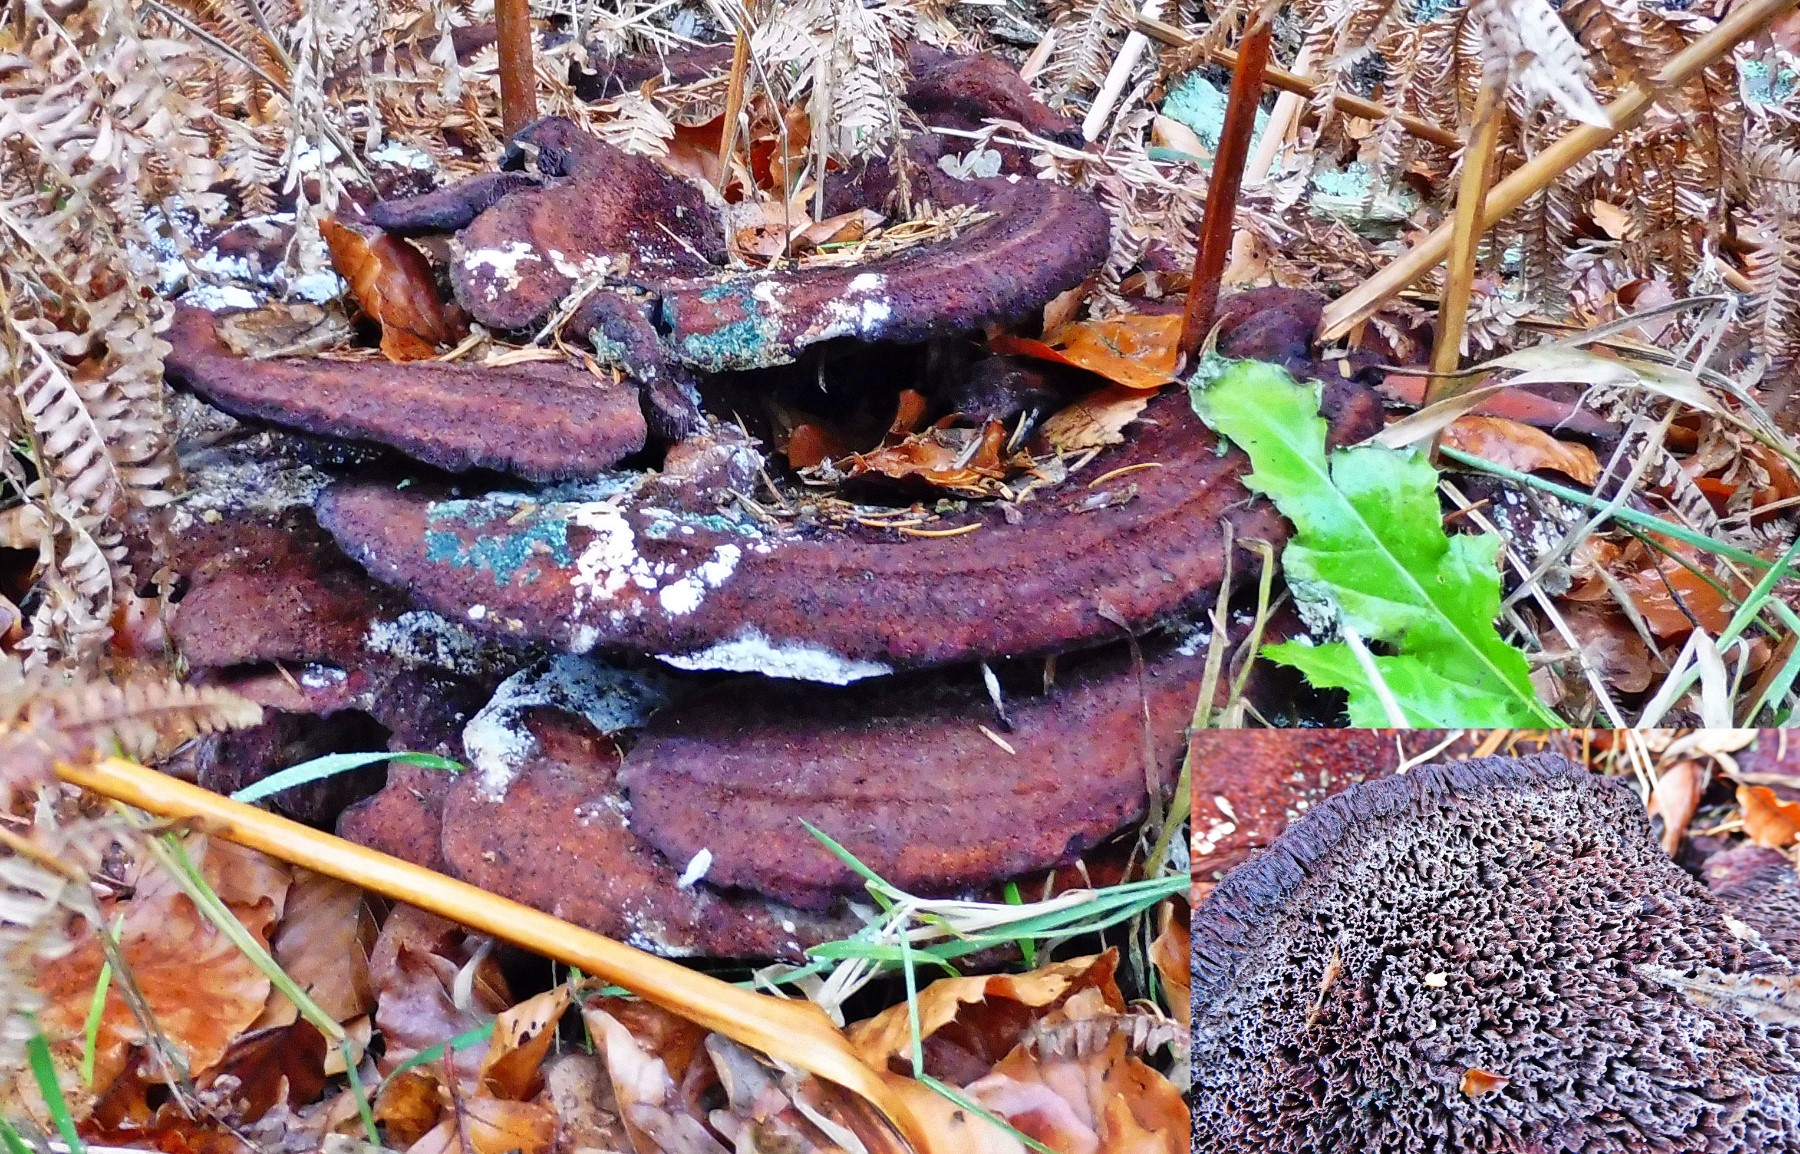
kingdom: Fungi
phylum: Basidiomycota
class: Agaricomycetes
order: Polyporales
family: Laetiporaceae
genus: Phaeolus
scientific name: Phaeolus schweinitzii
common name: brunporesvamp
